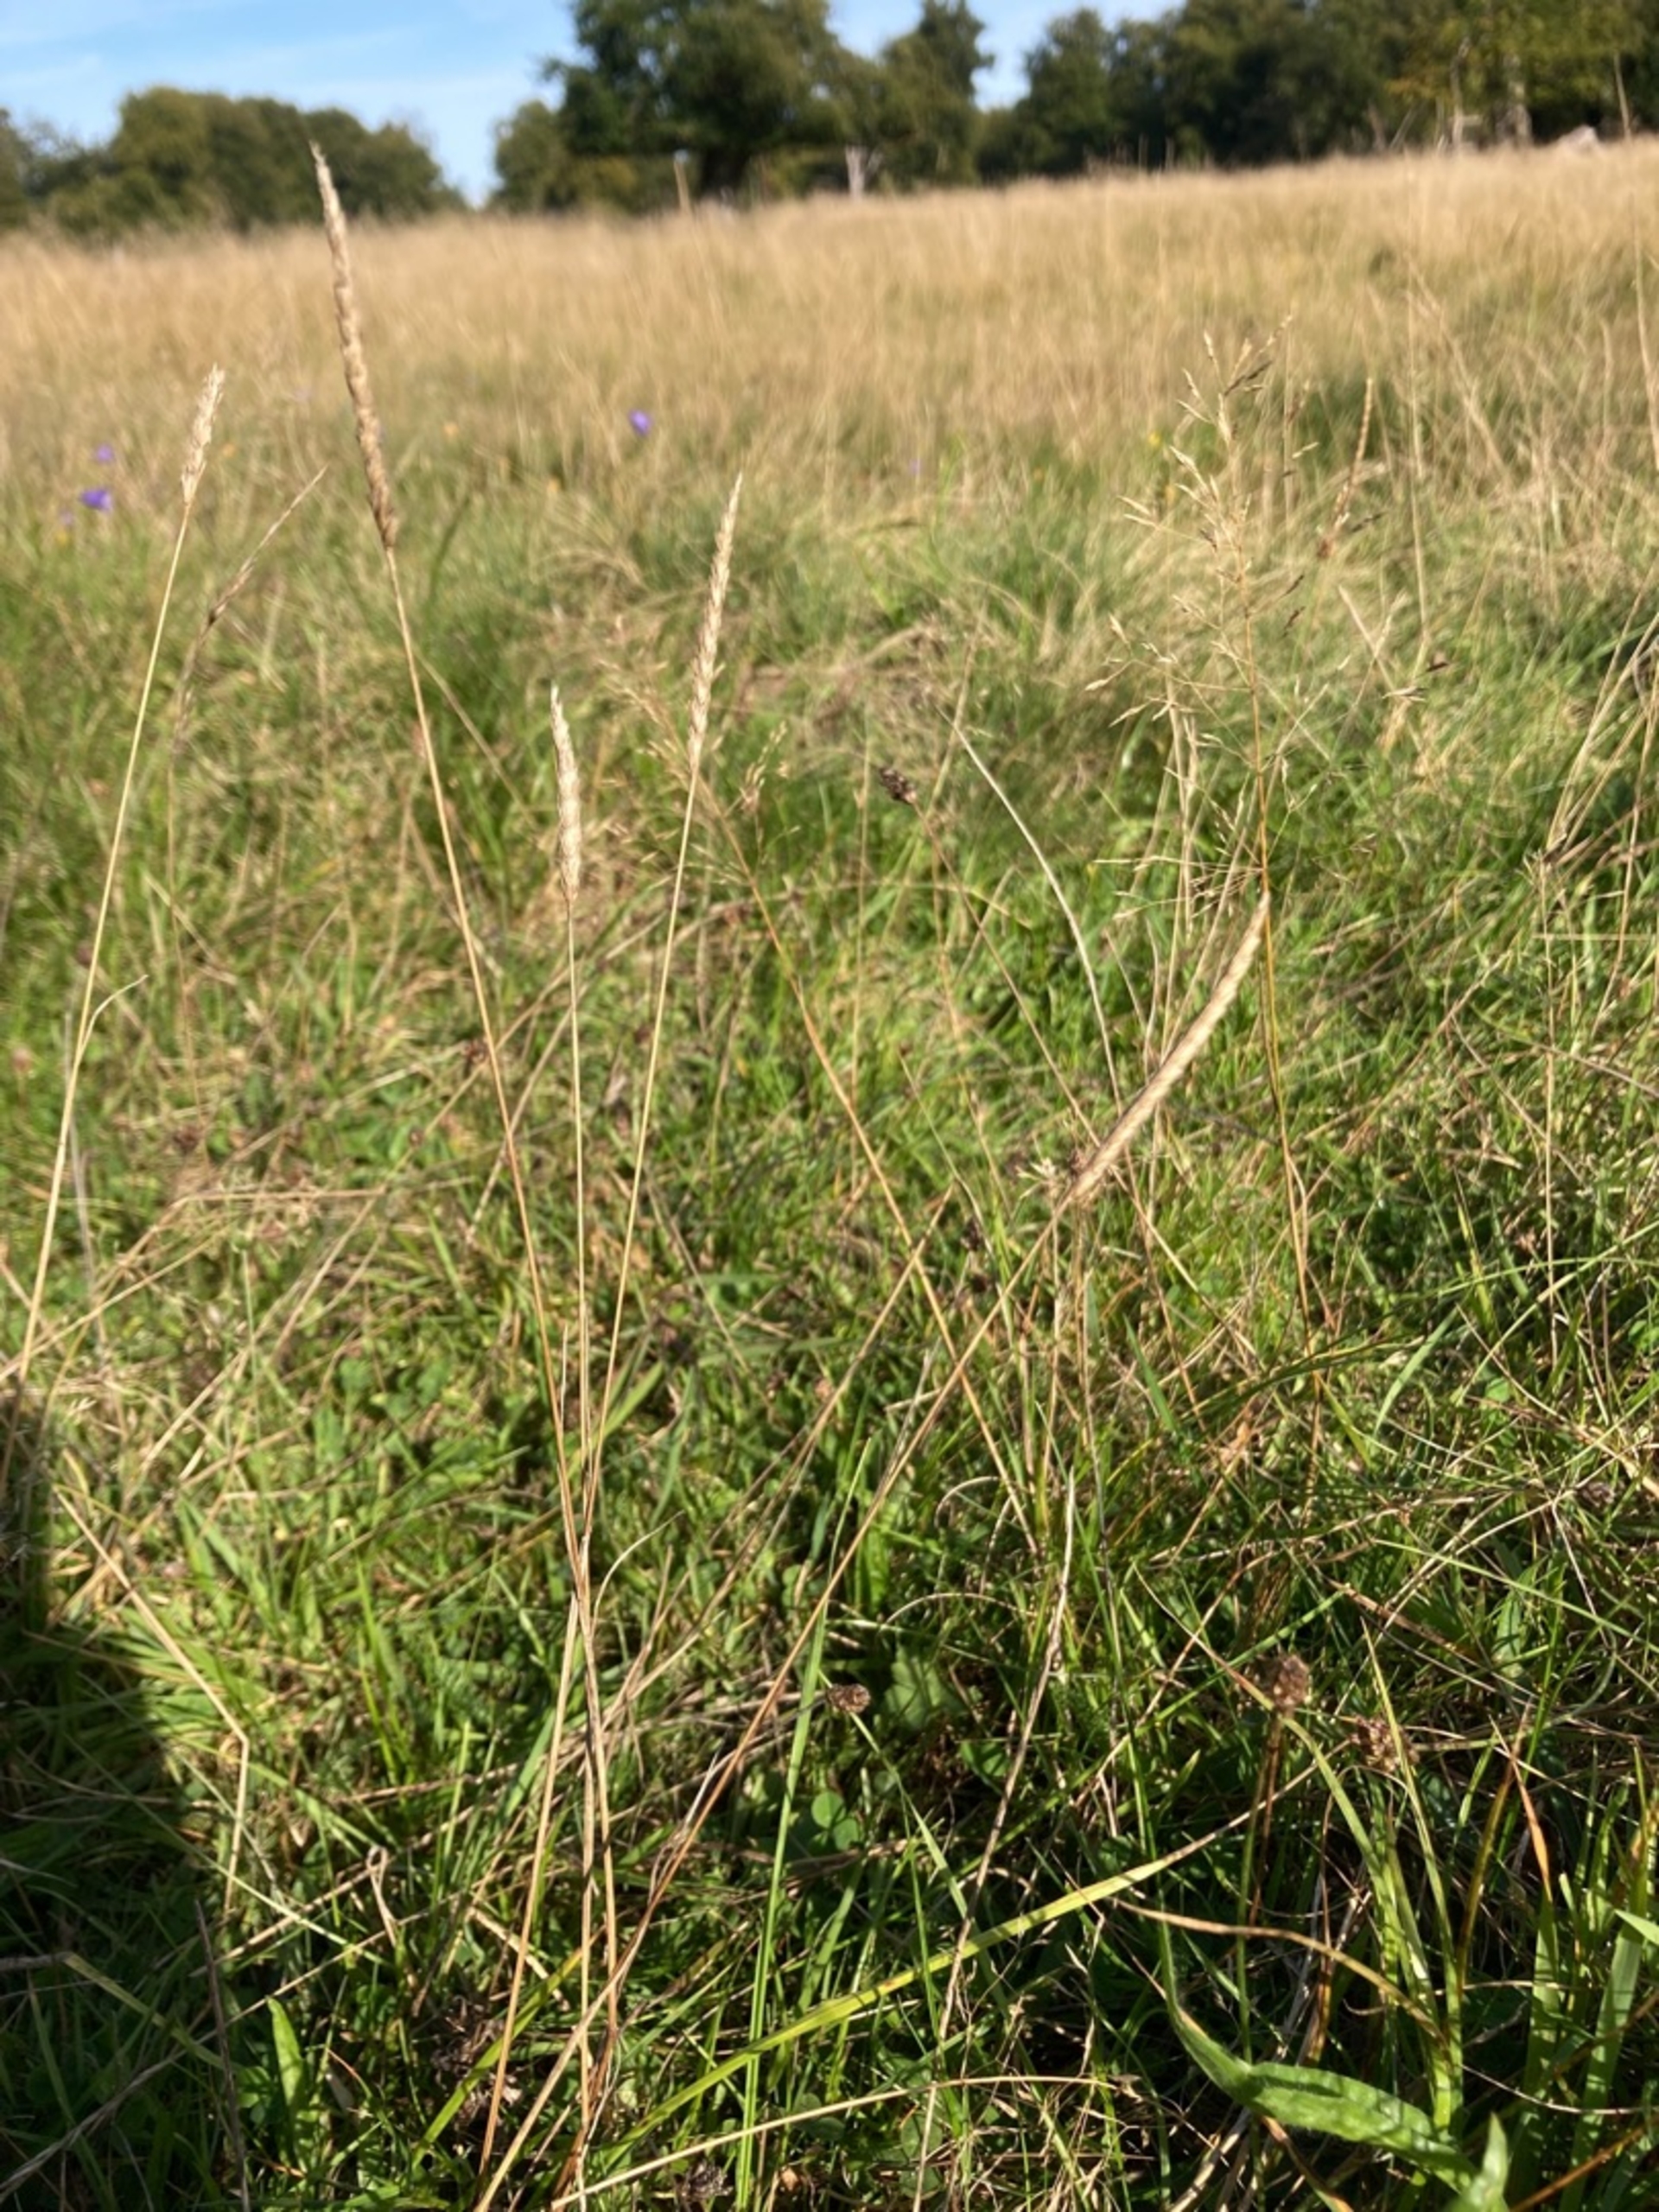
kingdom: Plantae
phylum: Tracheophyta
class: Liliopsida
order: Poales
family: Poaceae
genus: Cynosurus
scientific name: Cynosurus cristatus
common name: Kamgræs
